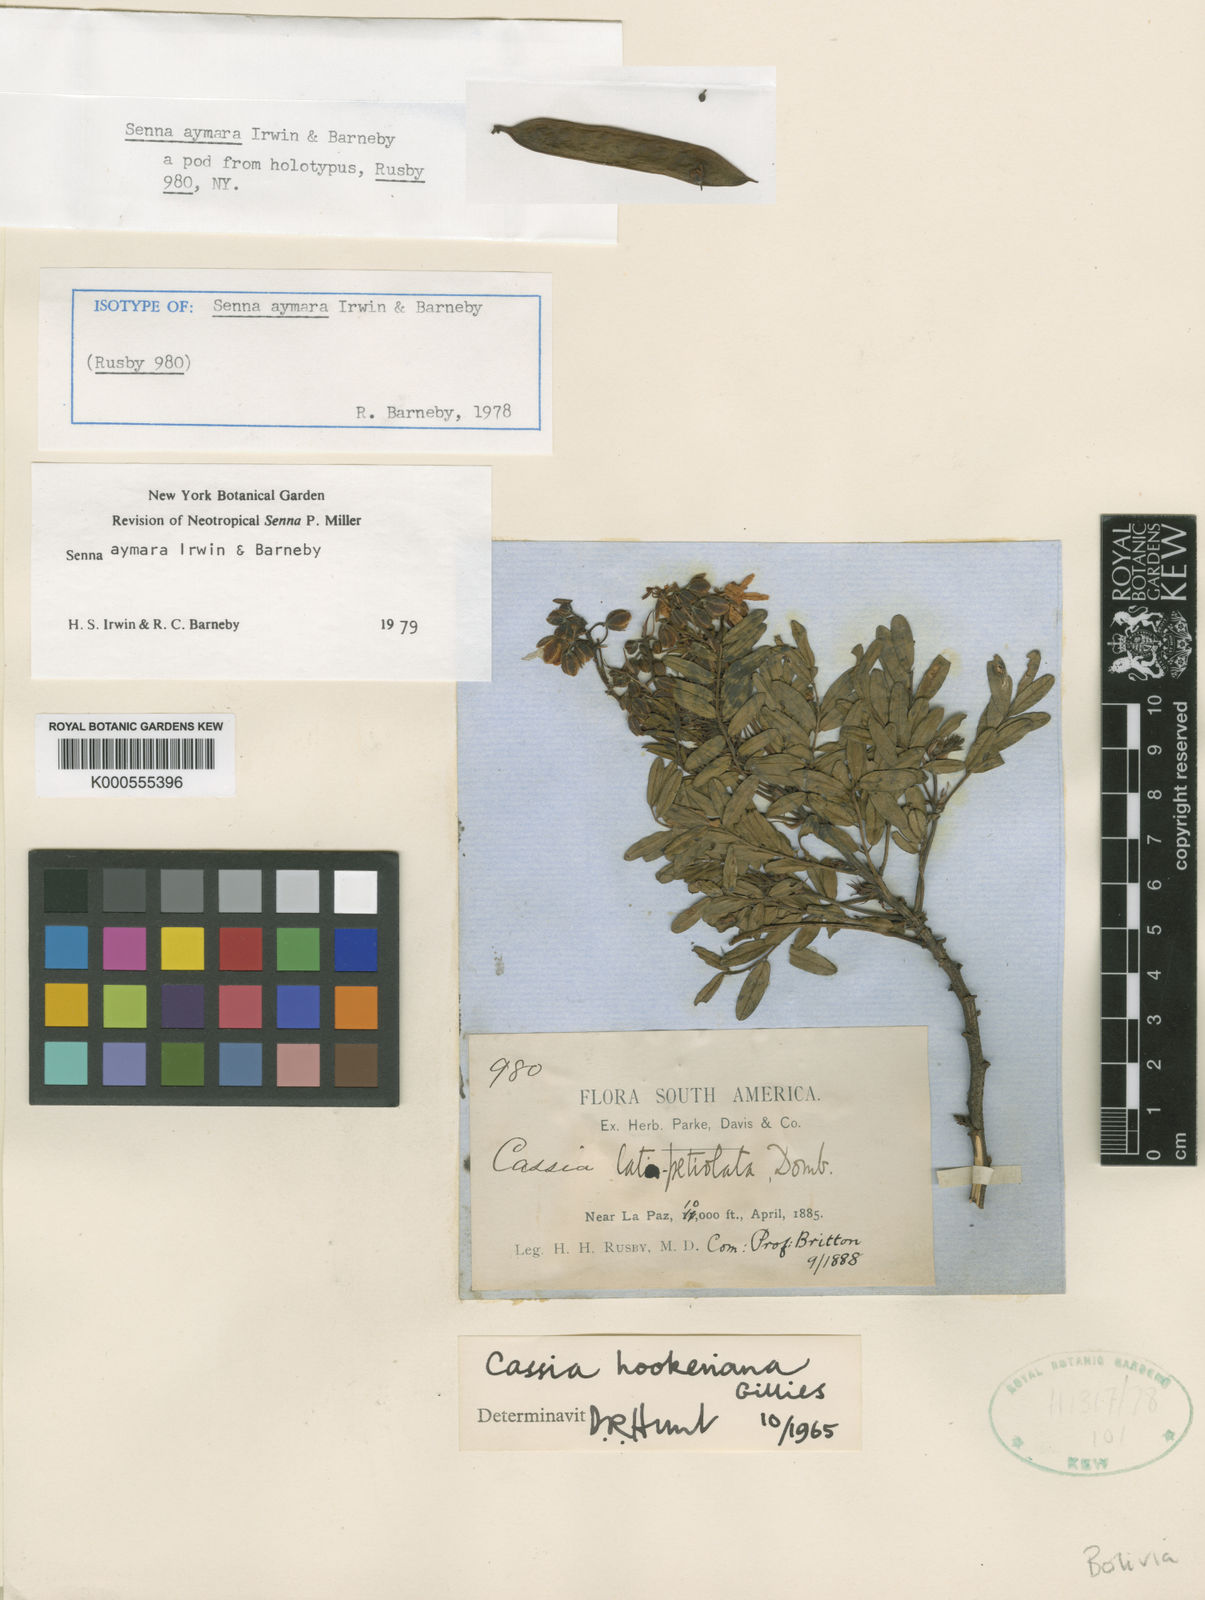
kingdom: Plantae
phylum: Tracheophyta
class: Magnoliopsida
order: Fabales
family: Fabaceae
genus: Cassia
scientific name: Cassia
